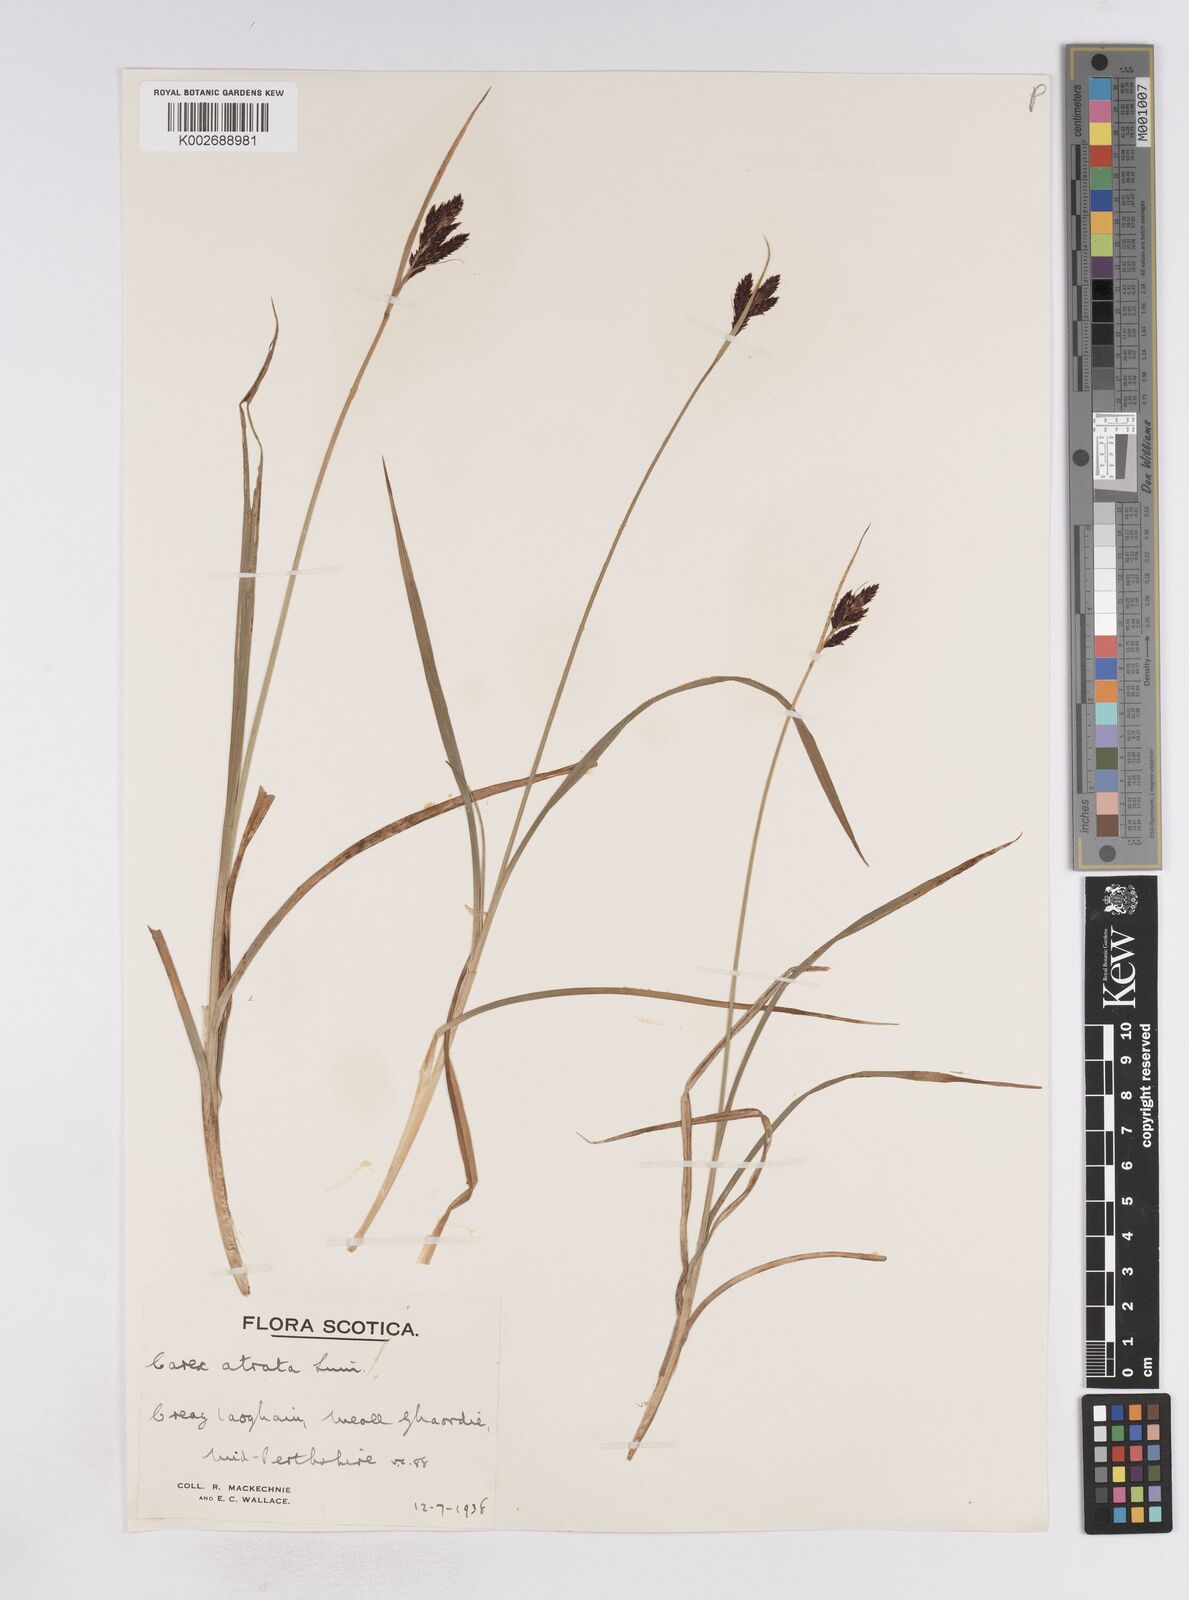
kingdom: Plantae
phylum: Tracheophyta
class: Liliopsida
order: Poales
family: Cyperaceae
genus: Carex
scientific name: Carex atrata
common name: Black alpine sedge
